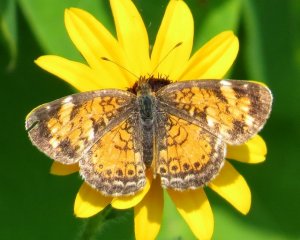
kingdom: Animalia
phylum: Arthropoda
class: Insecta
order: Lepidoptera
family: Nymphalidae
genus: Phyciodes
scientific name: Phyciodes tharos
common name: Northern Crescent
